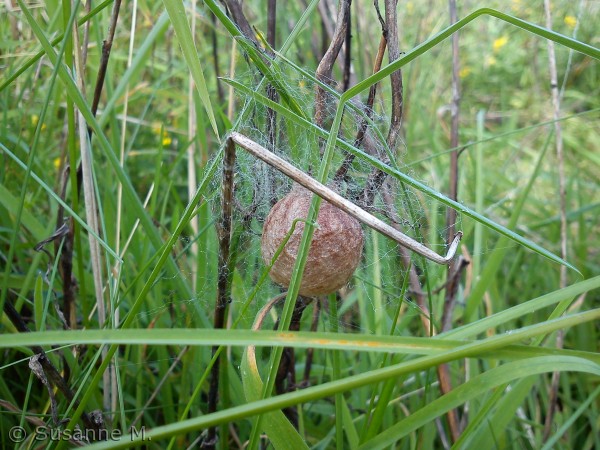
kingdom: Animalia
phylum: Arthropoda
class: Arachnida
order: Araneae
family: Araneidae
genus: Argiope
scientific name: Argiope bruennichi
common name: Hvepseedderkop
